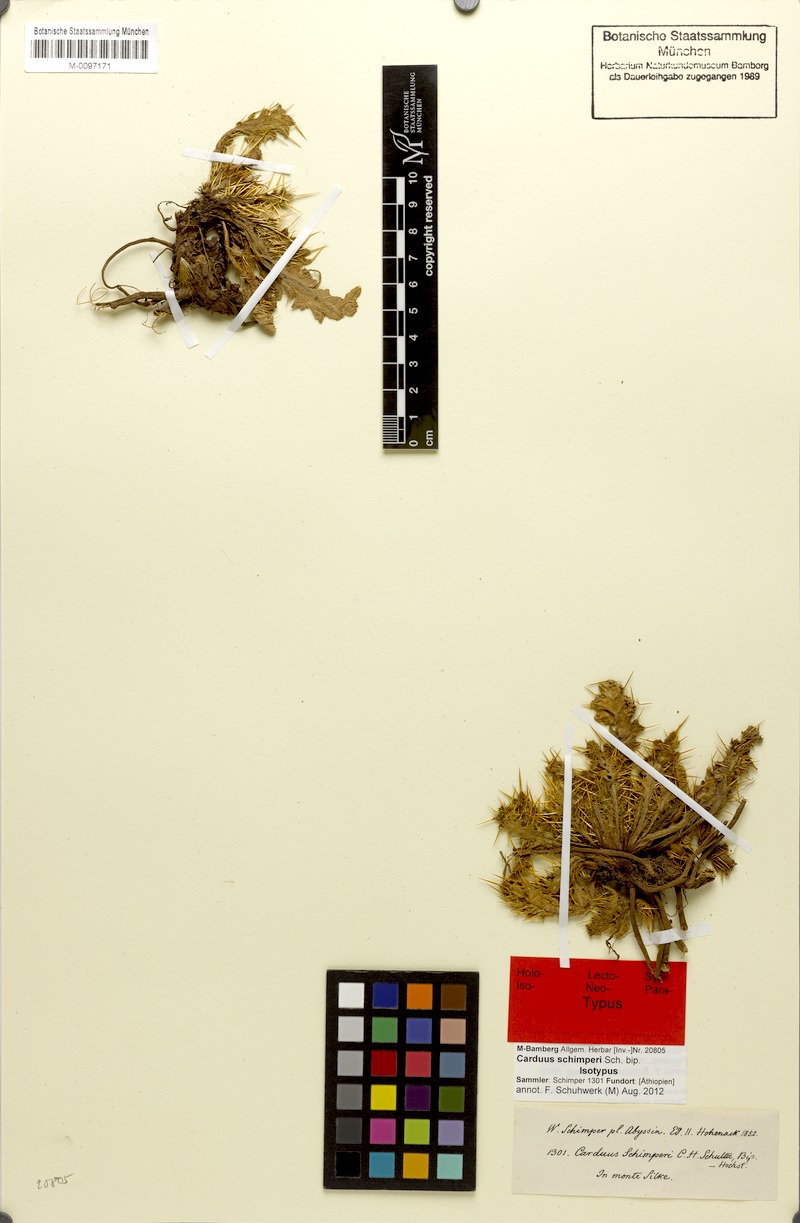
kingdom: Plantae
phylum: Tracheophyta
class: Magnoliopsida
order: Asterales
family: Asteraceae
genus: Carduus
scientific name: Carduus schimperi
